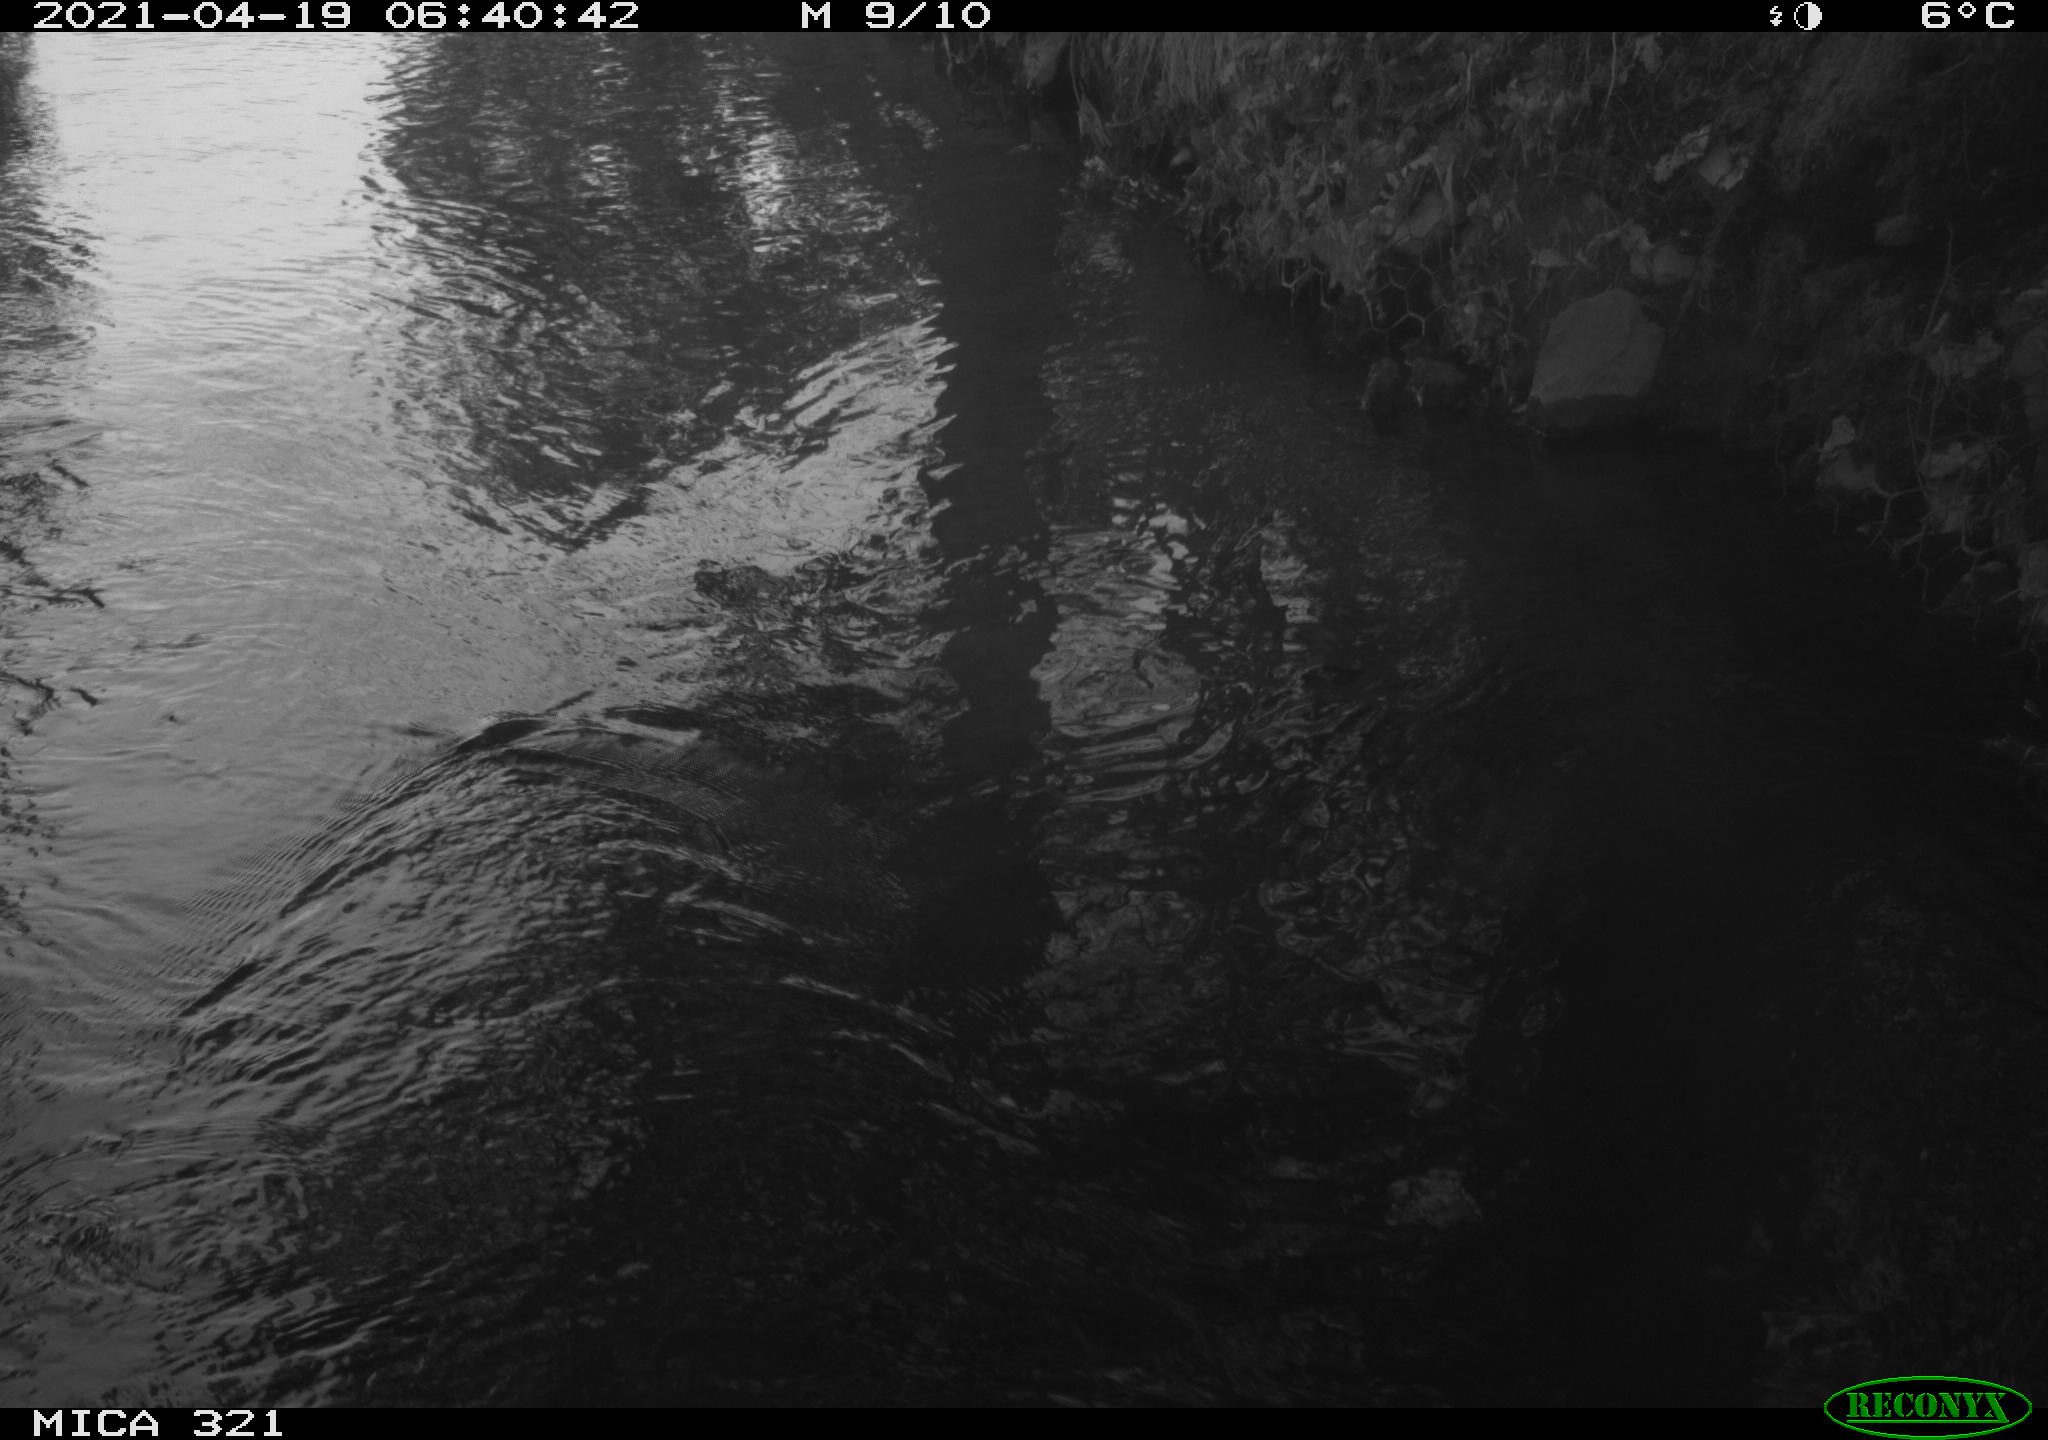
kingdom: Animalia
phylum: Chordata
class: Aves
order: Anseriformes
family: Anatidae
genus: Anas
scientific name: Anas platyrhynchos
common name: Mallard
